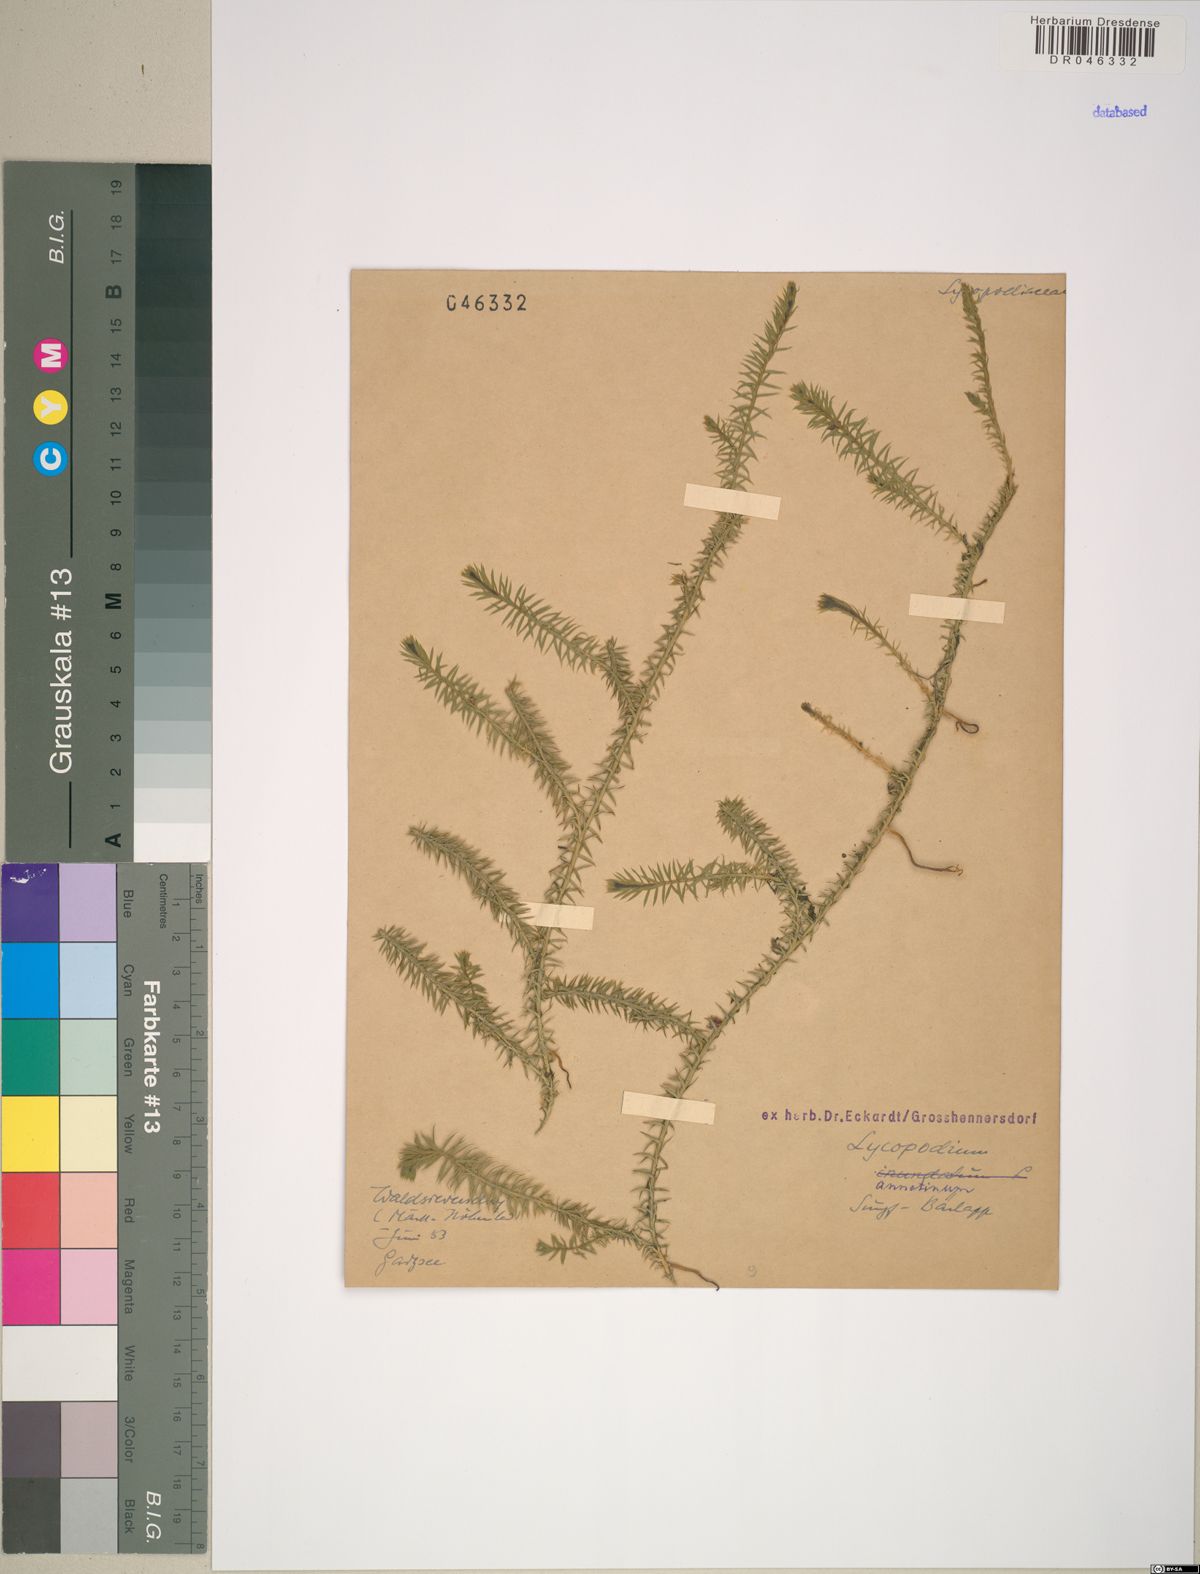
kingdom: Plantae
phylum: Tracheophyta
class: Lycopodiopsida
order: Lycopodiales
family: Lycopodiaceae
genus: Spinulum
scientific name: Spinulum annotinum
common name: Interrupted club-moss
